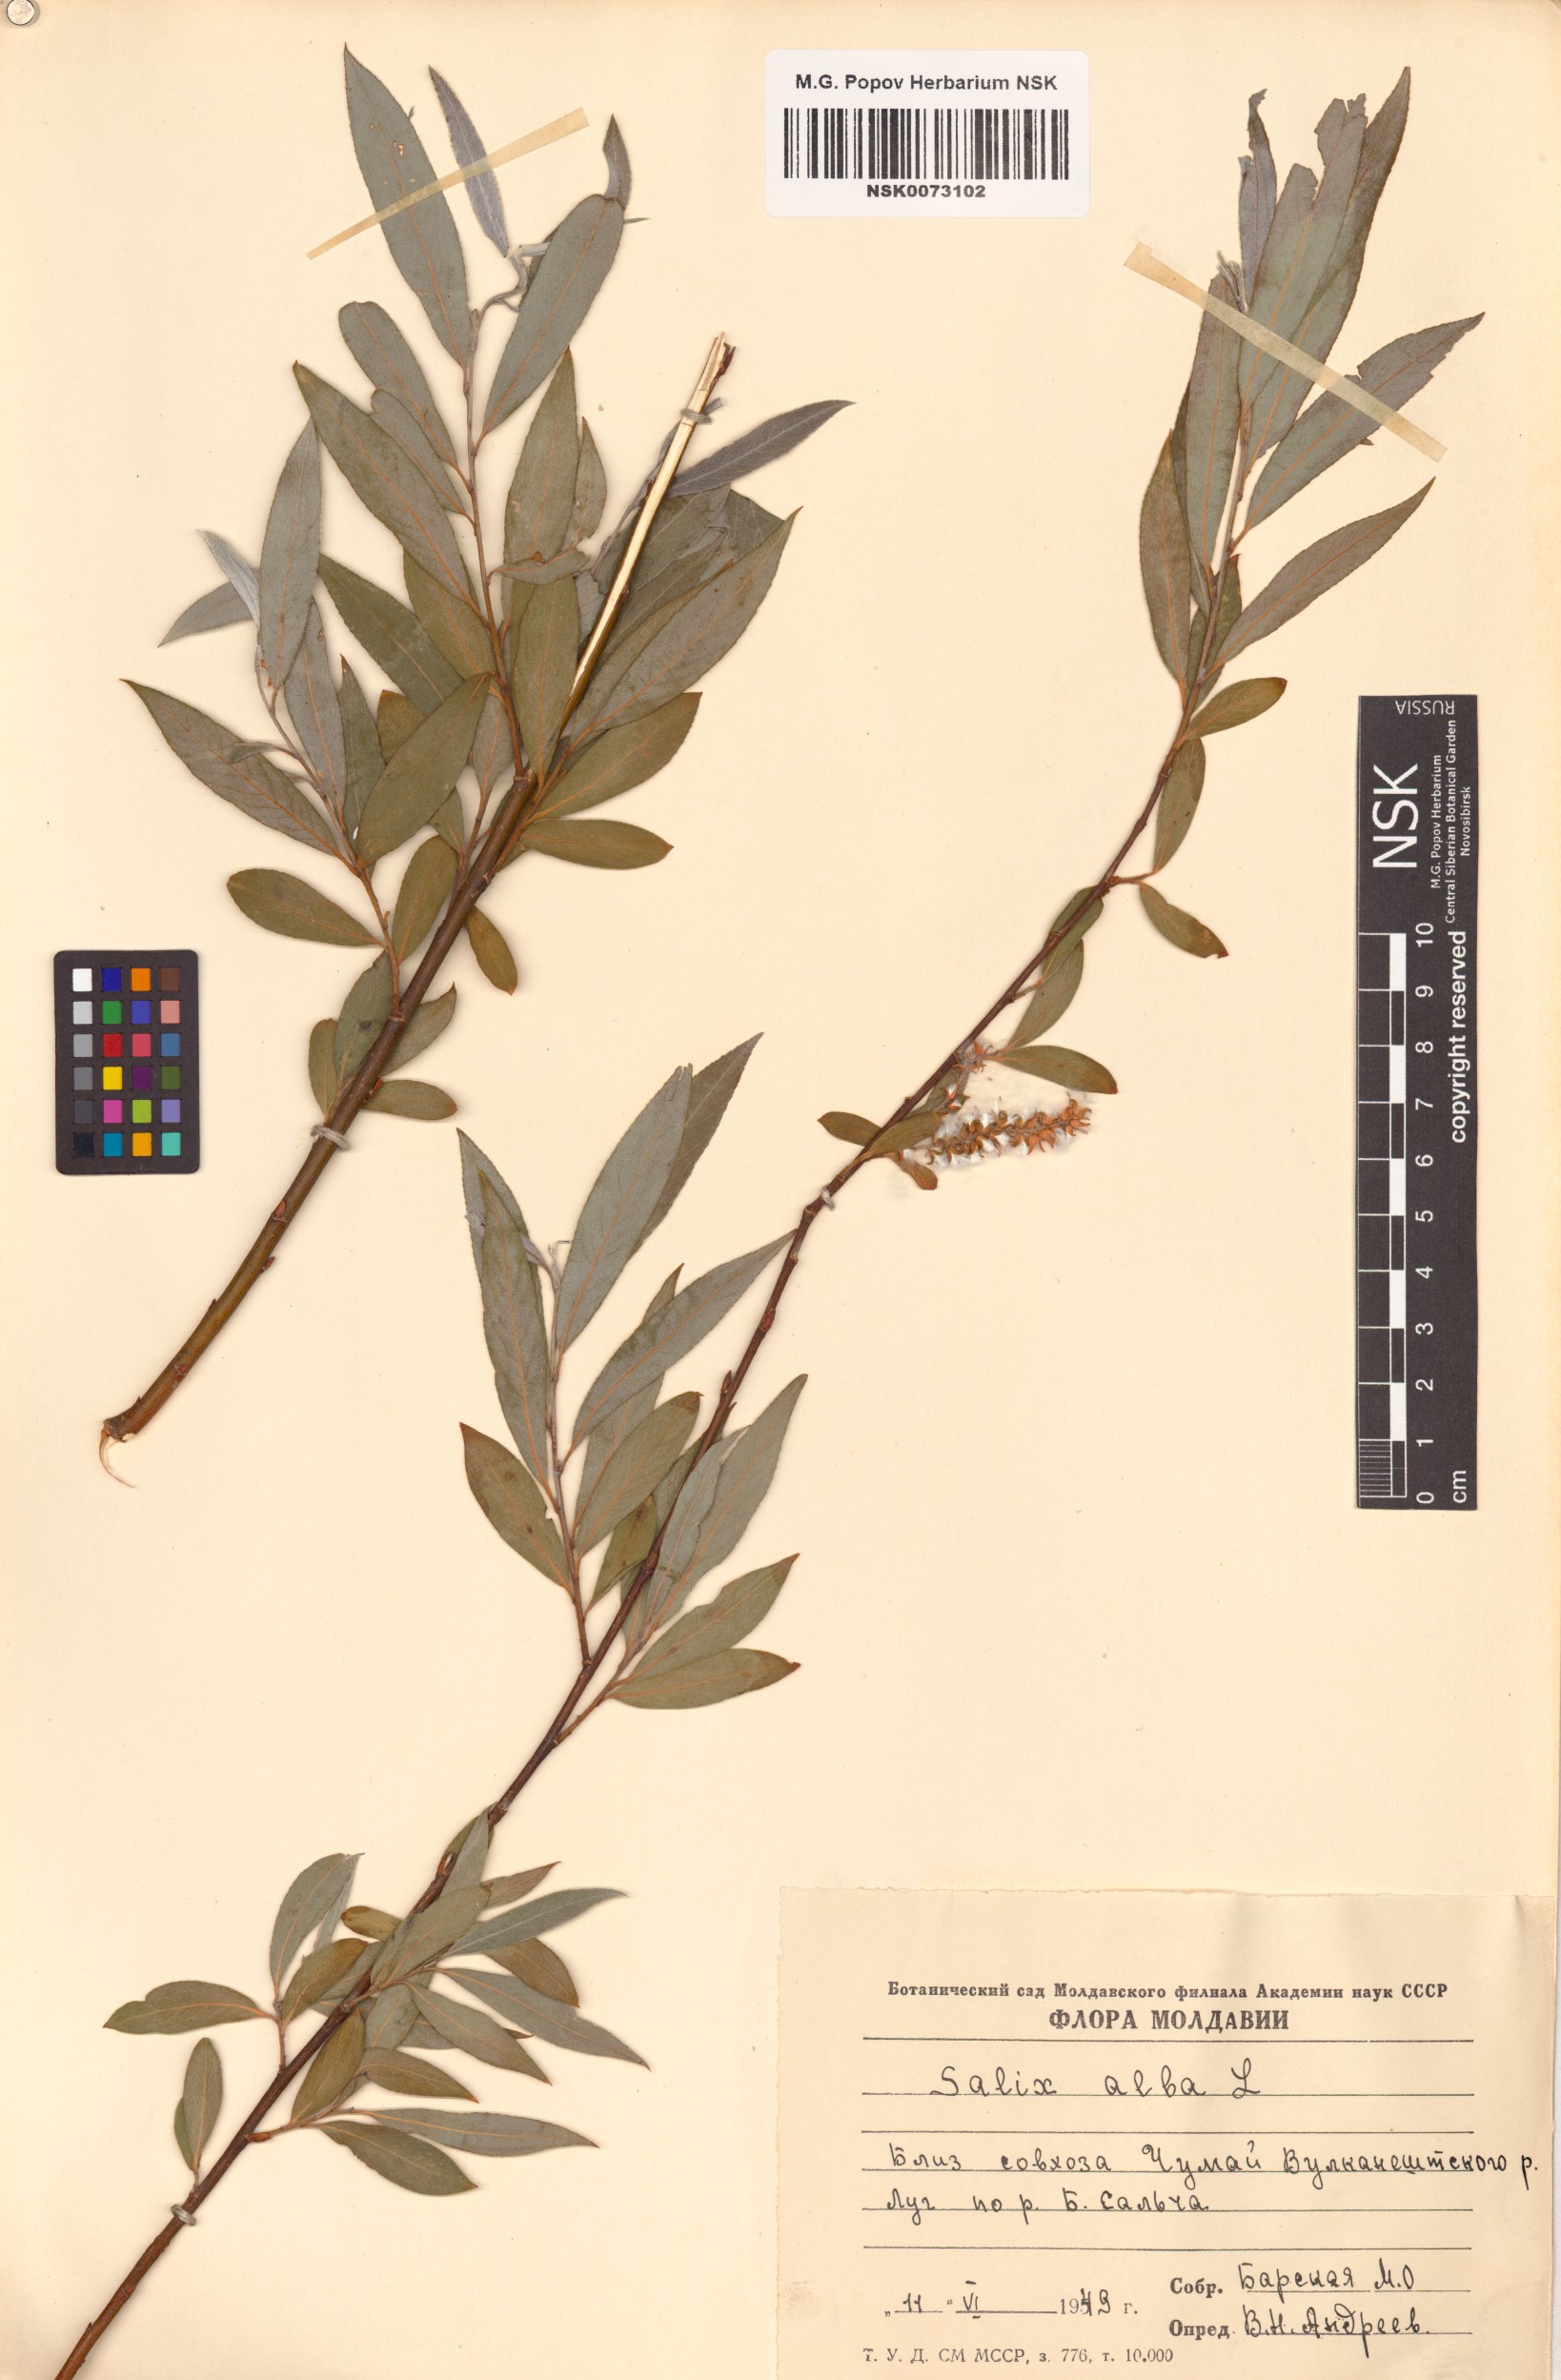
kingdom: Plantae
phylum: Tracheophyta
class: Magnoliopsida
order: Malpighiales
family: Salicaceae
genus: Salix
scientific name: Salix alba
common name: White willow
